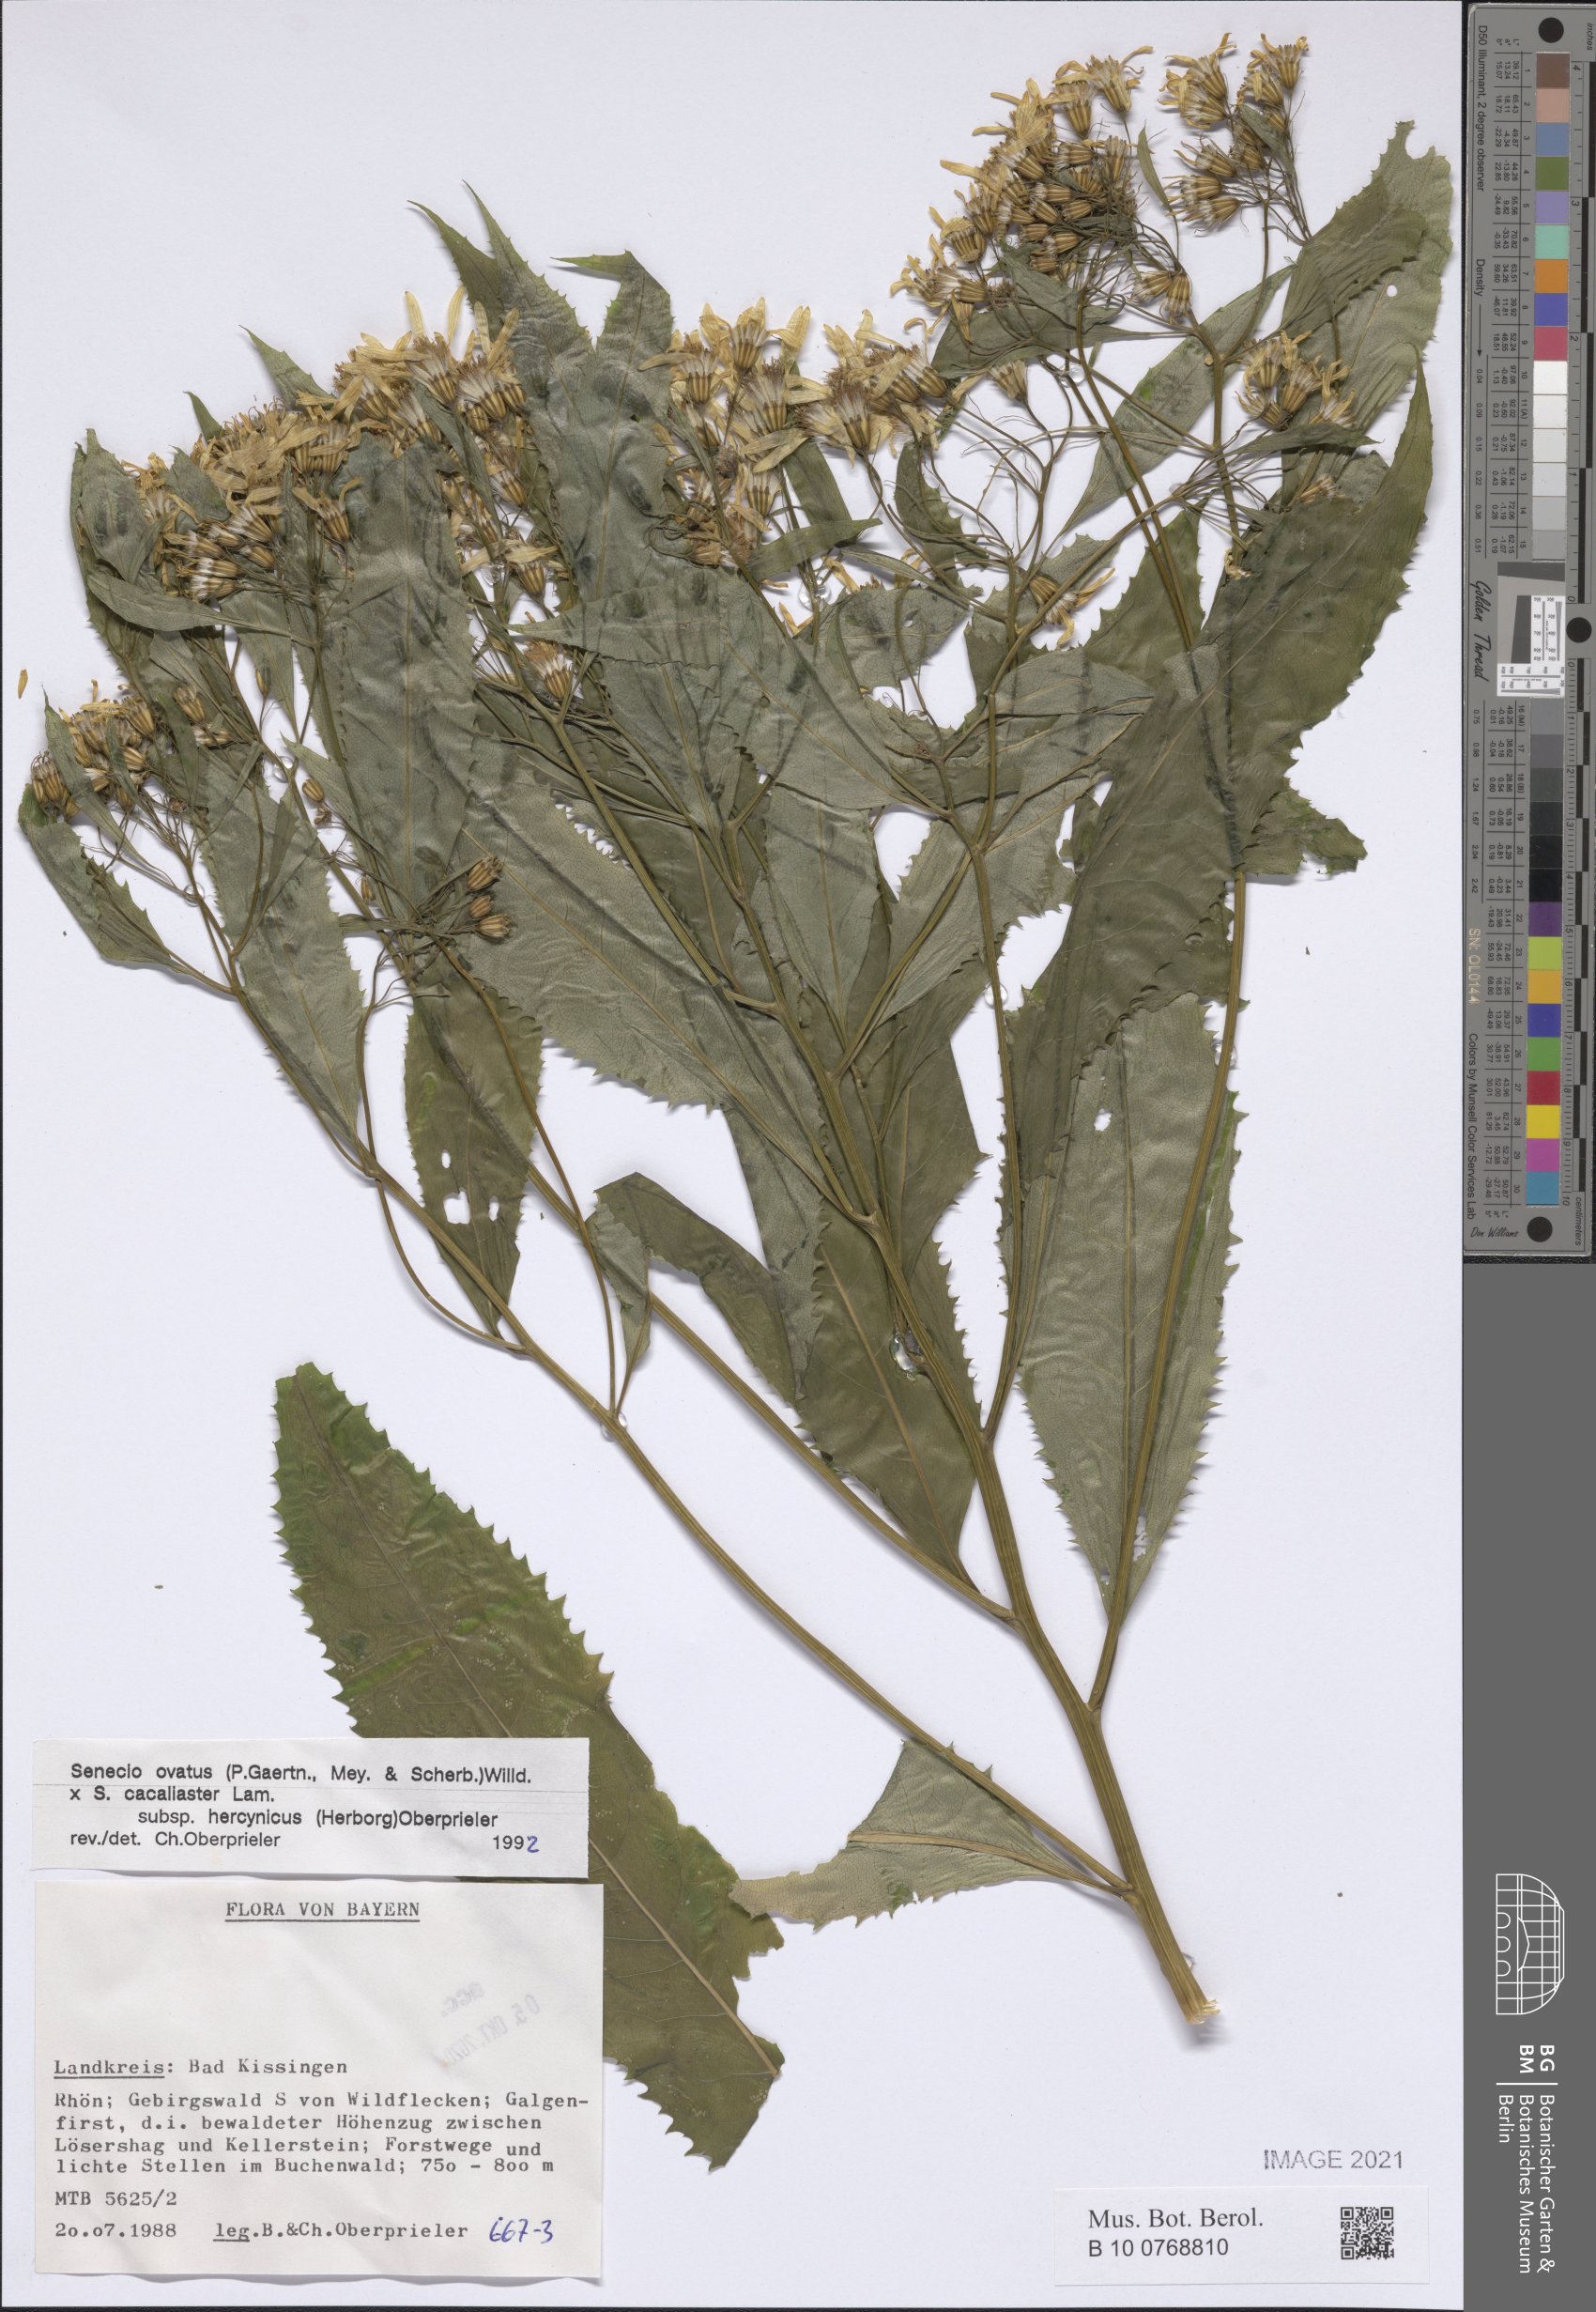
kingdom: Plantae
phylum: Tracheophyta
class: Magnoliopsida
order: Asterales
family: Asteraceae
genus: Senecio
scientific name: Senecio ovatus
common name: Wood ragwort
